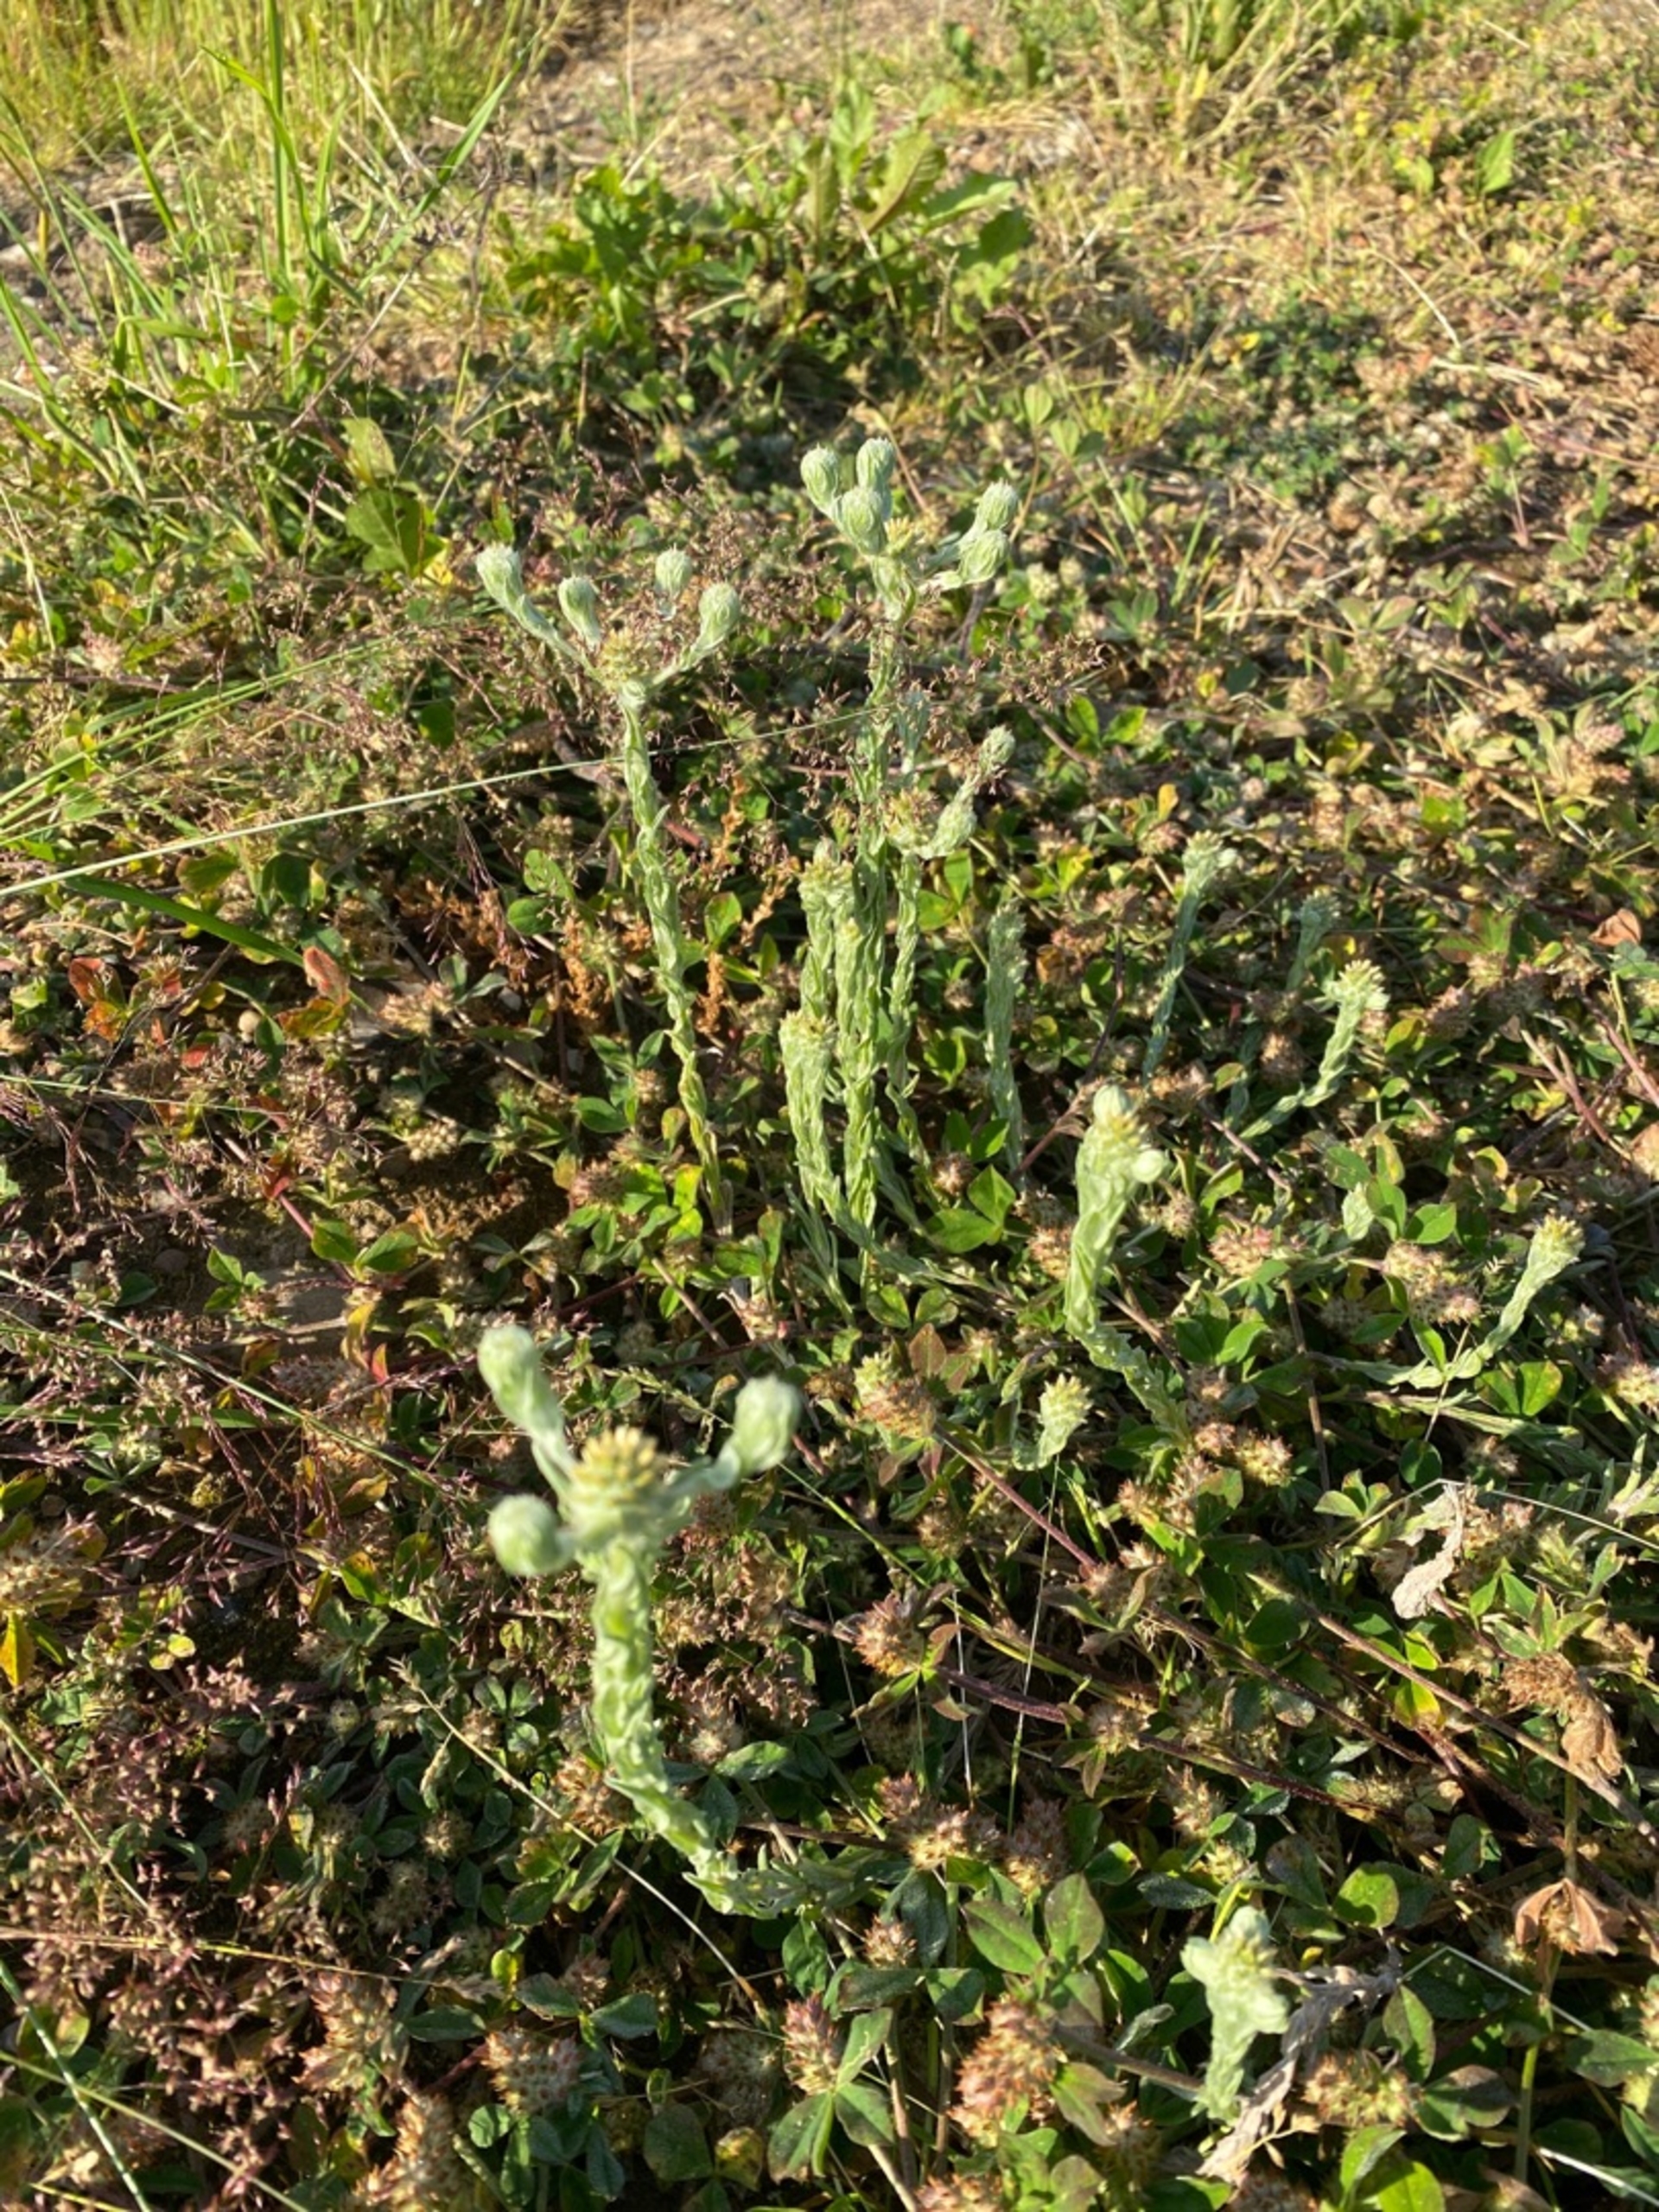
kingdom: Plantae
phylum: Tracheophyta
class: Magnoliopsida
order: Asterales
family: Asteraceae
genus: Filago
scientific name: Filago germanica
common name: Kugle-museurt
